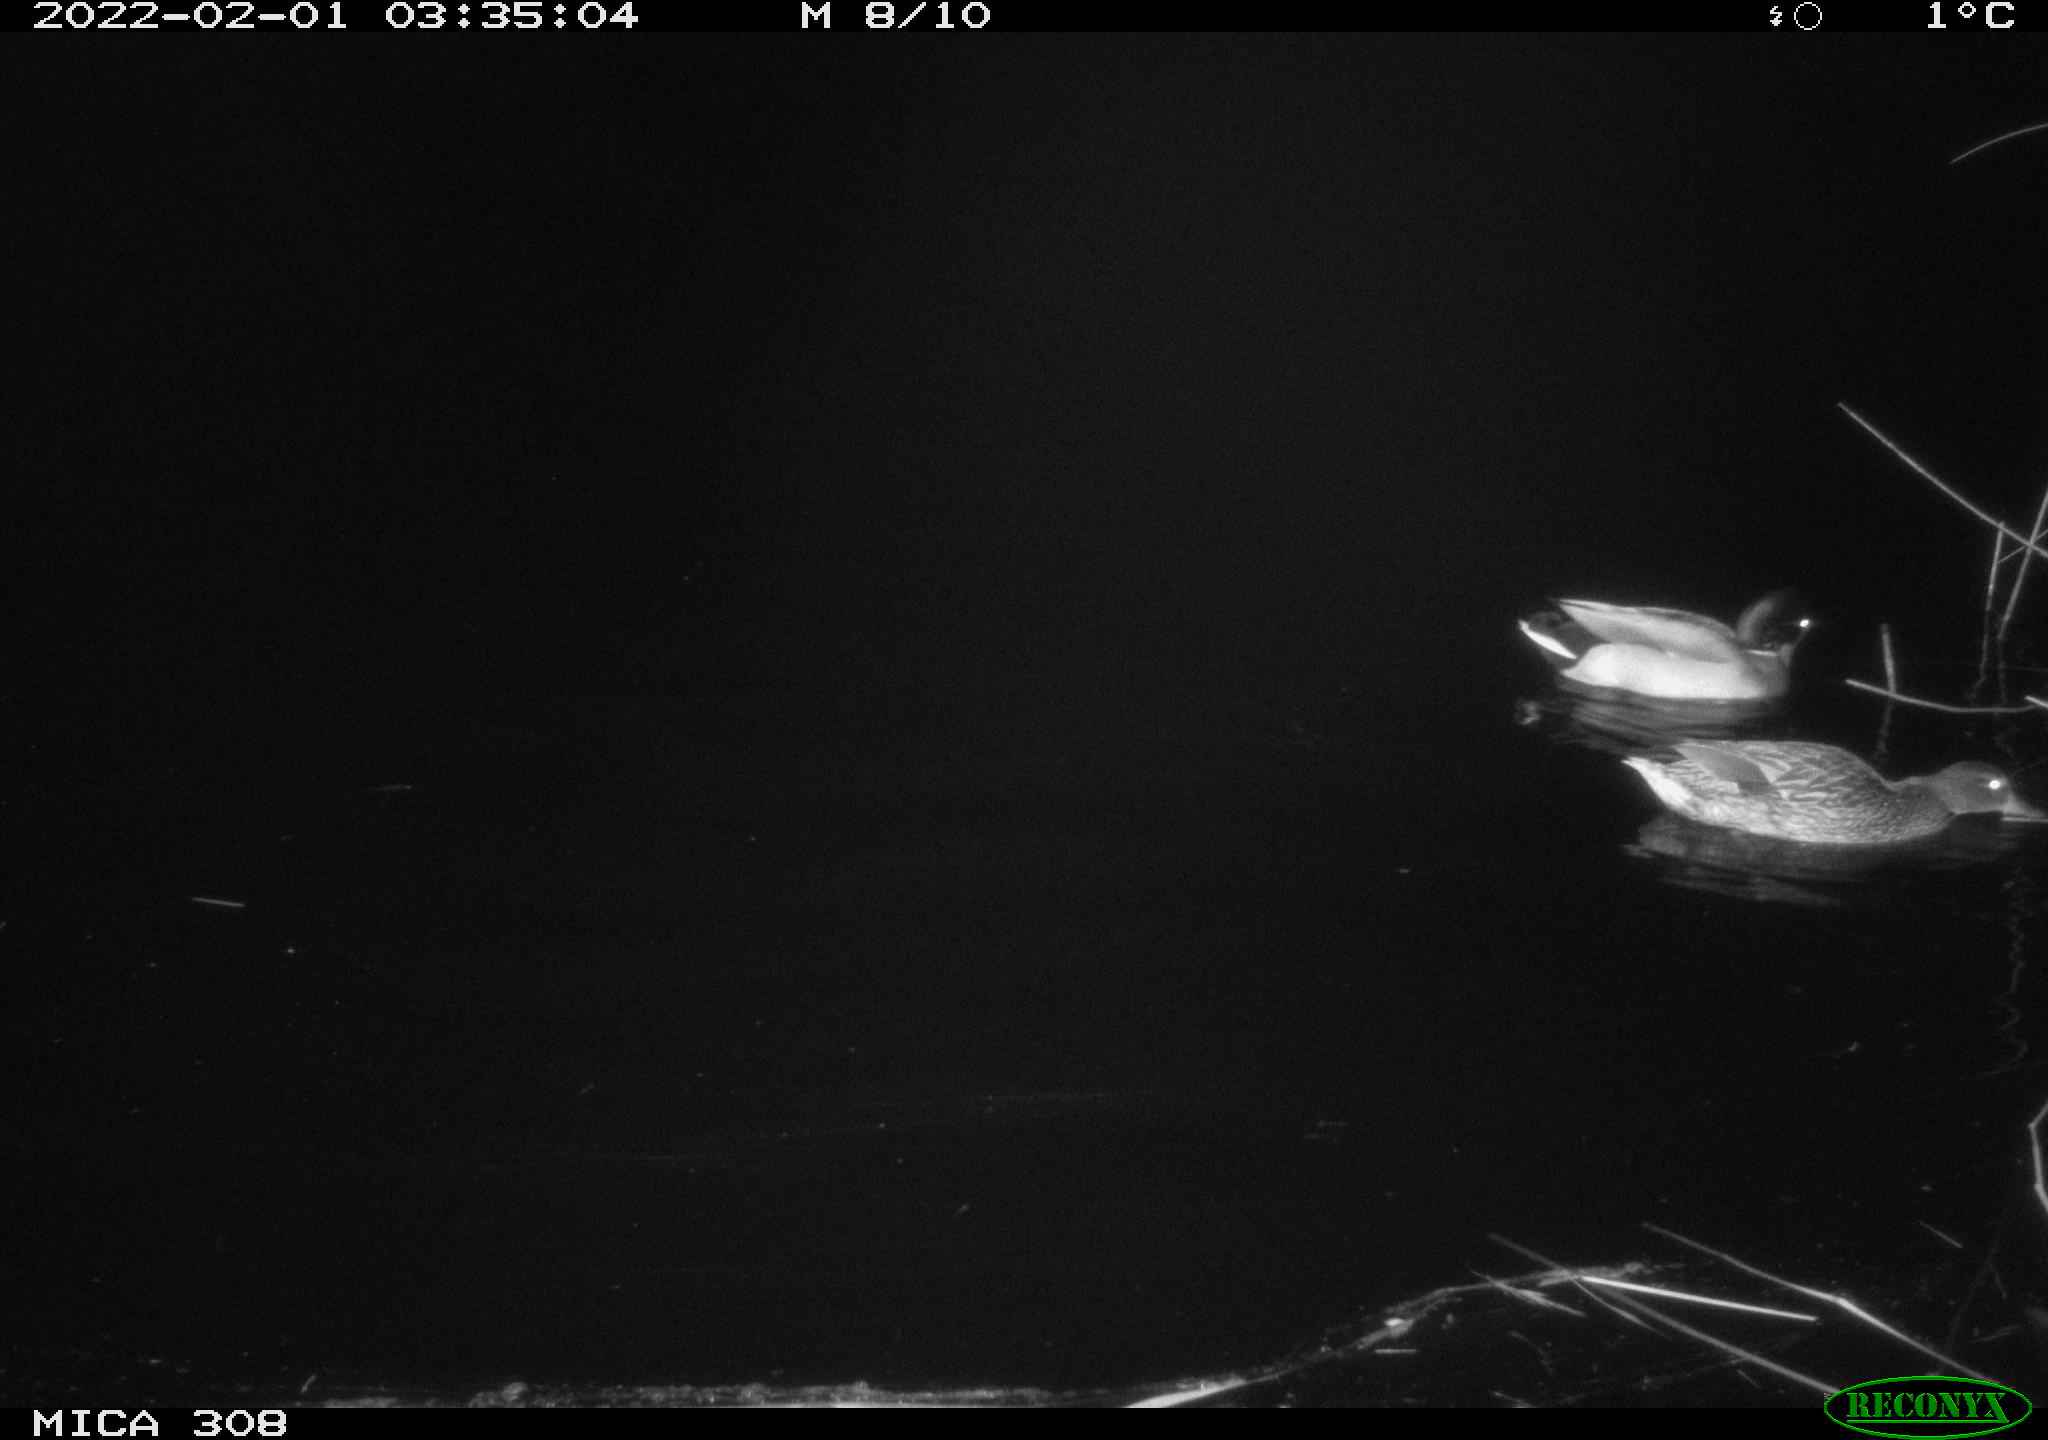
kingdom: Animalia
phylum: Chordata
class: Aves
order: Anseriformes
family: Anatidae
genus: Anas
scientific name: Anas
